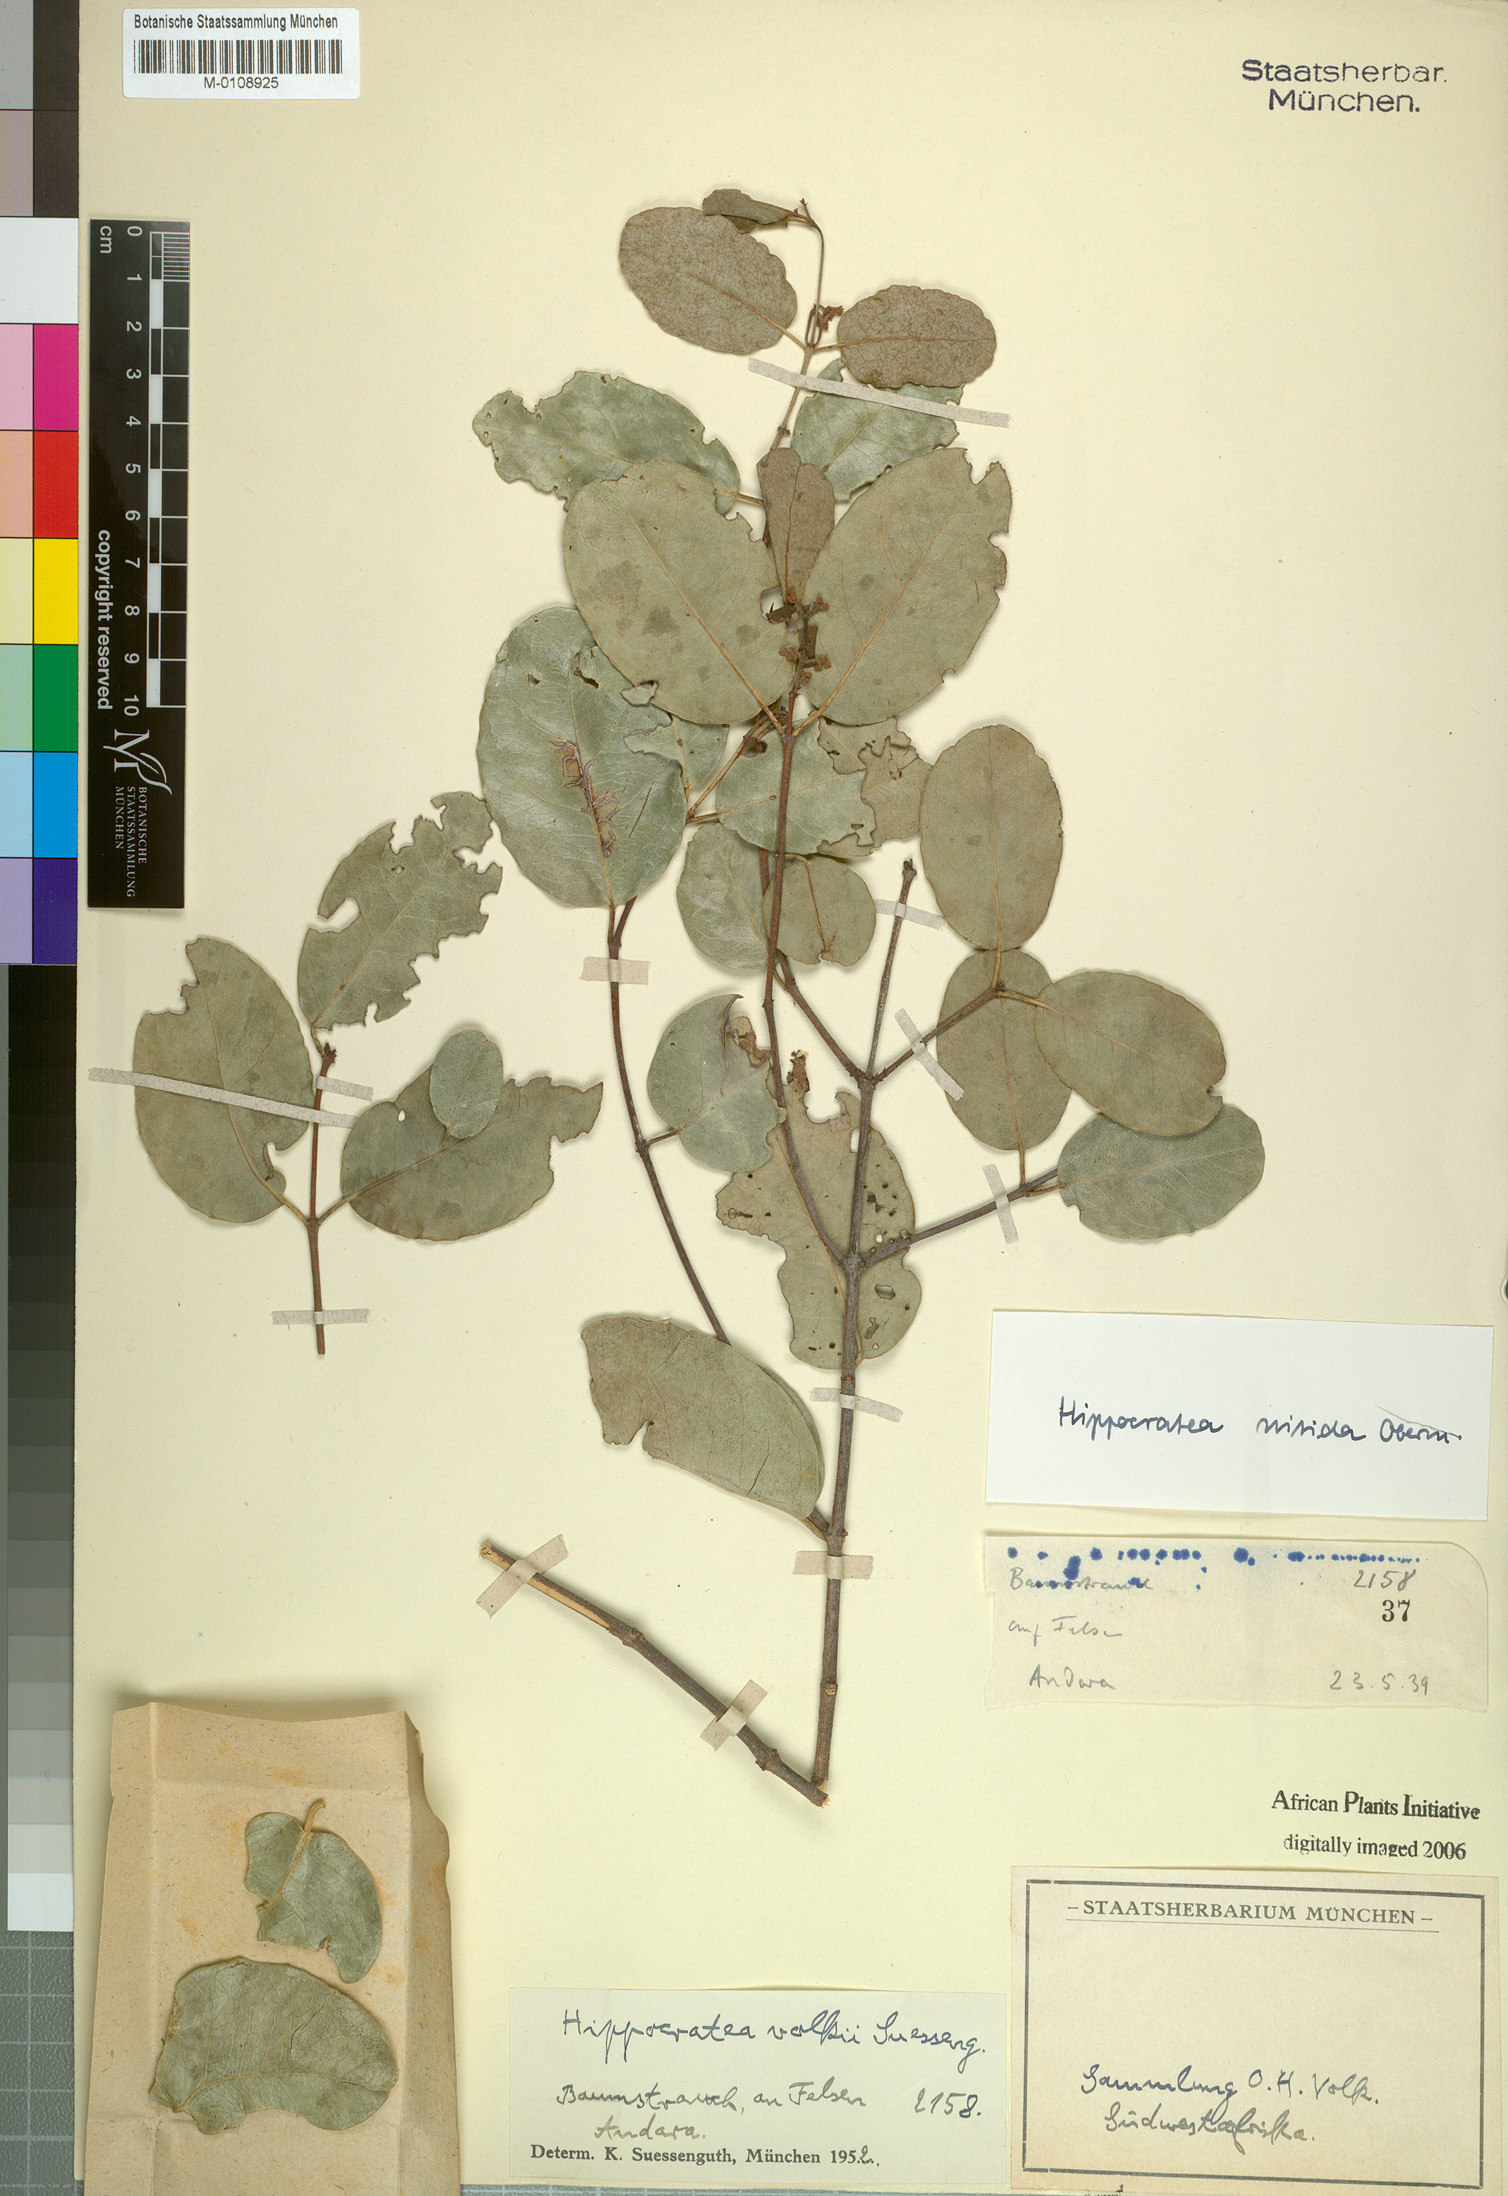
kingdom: Plantae
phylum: Tracheophyta
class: Magnoliopsida
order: Celastrales
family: Celastraceae
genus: Loeseneriella
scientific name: Loeseneriella africana
